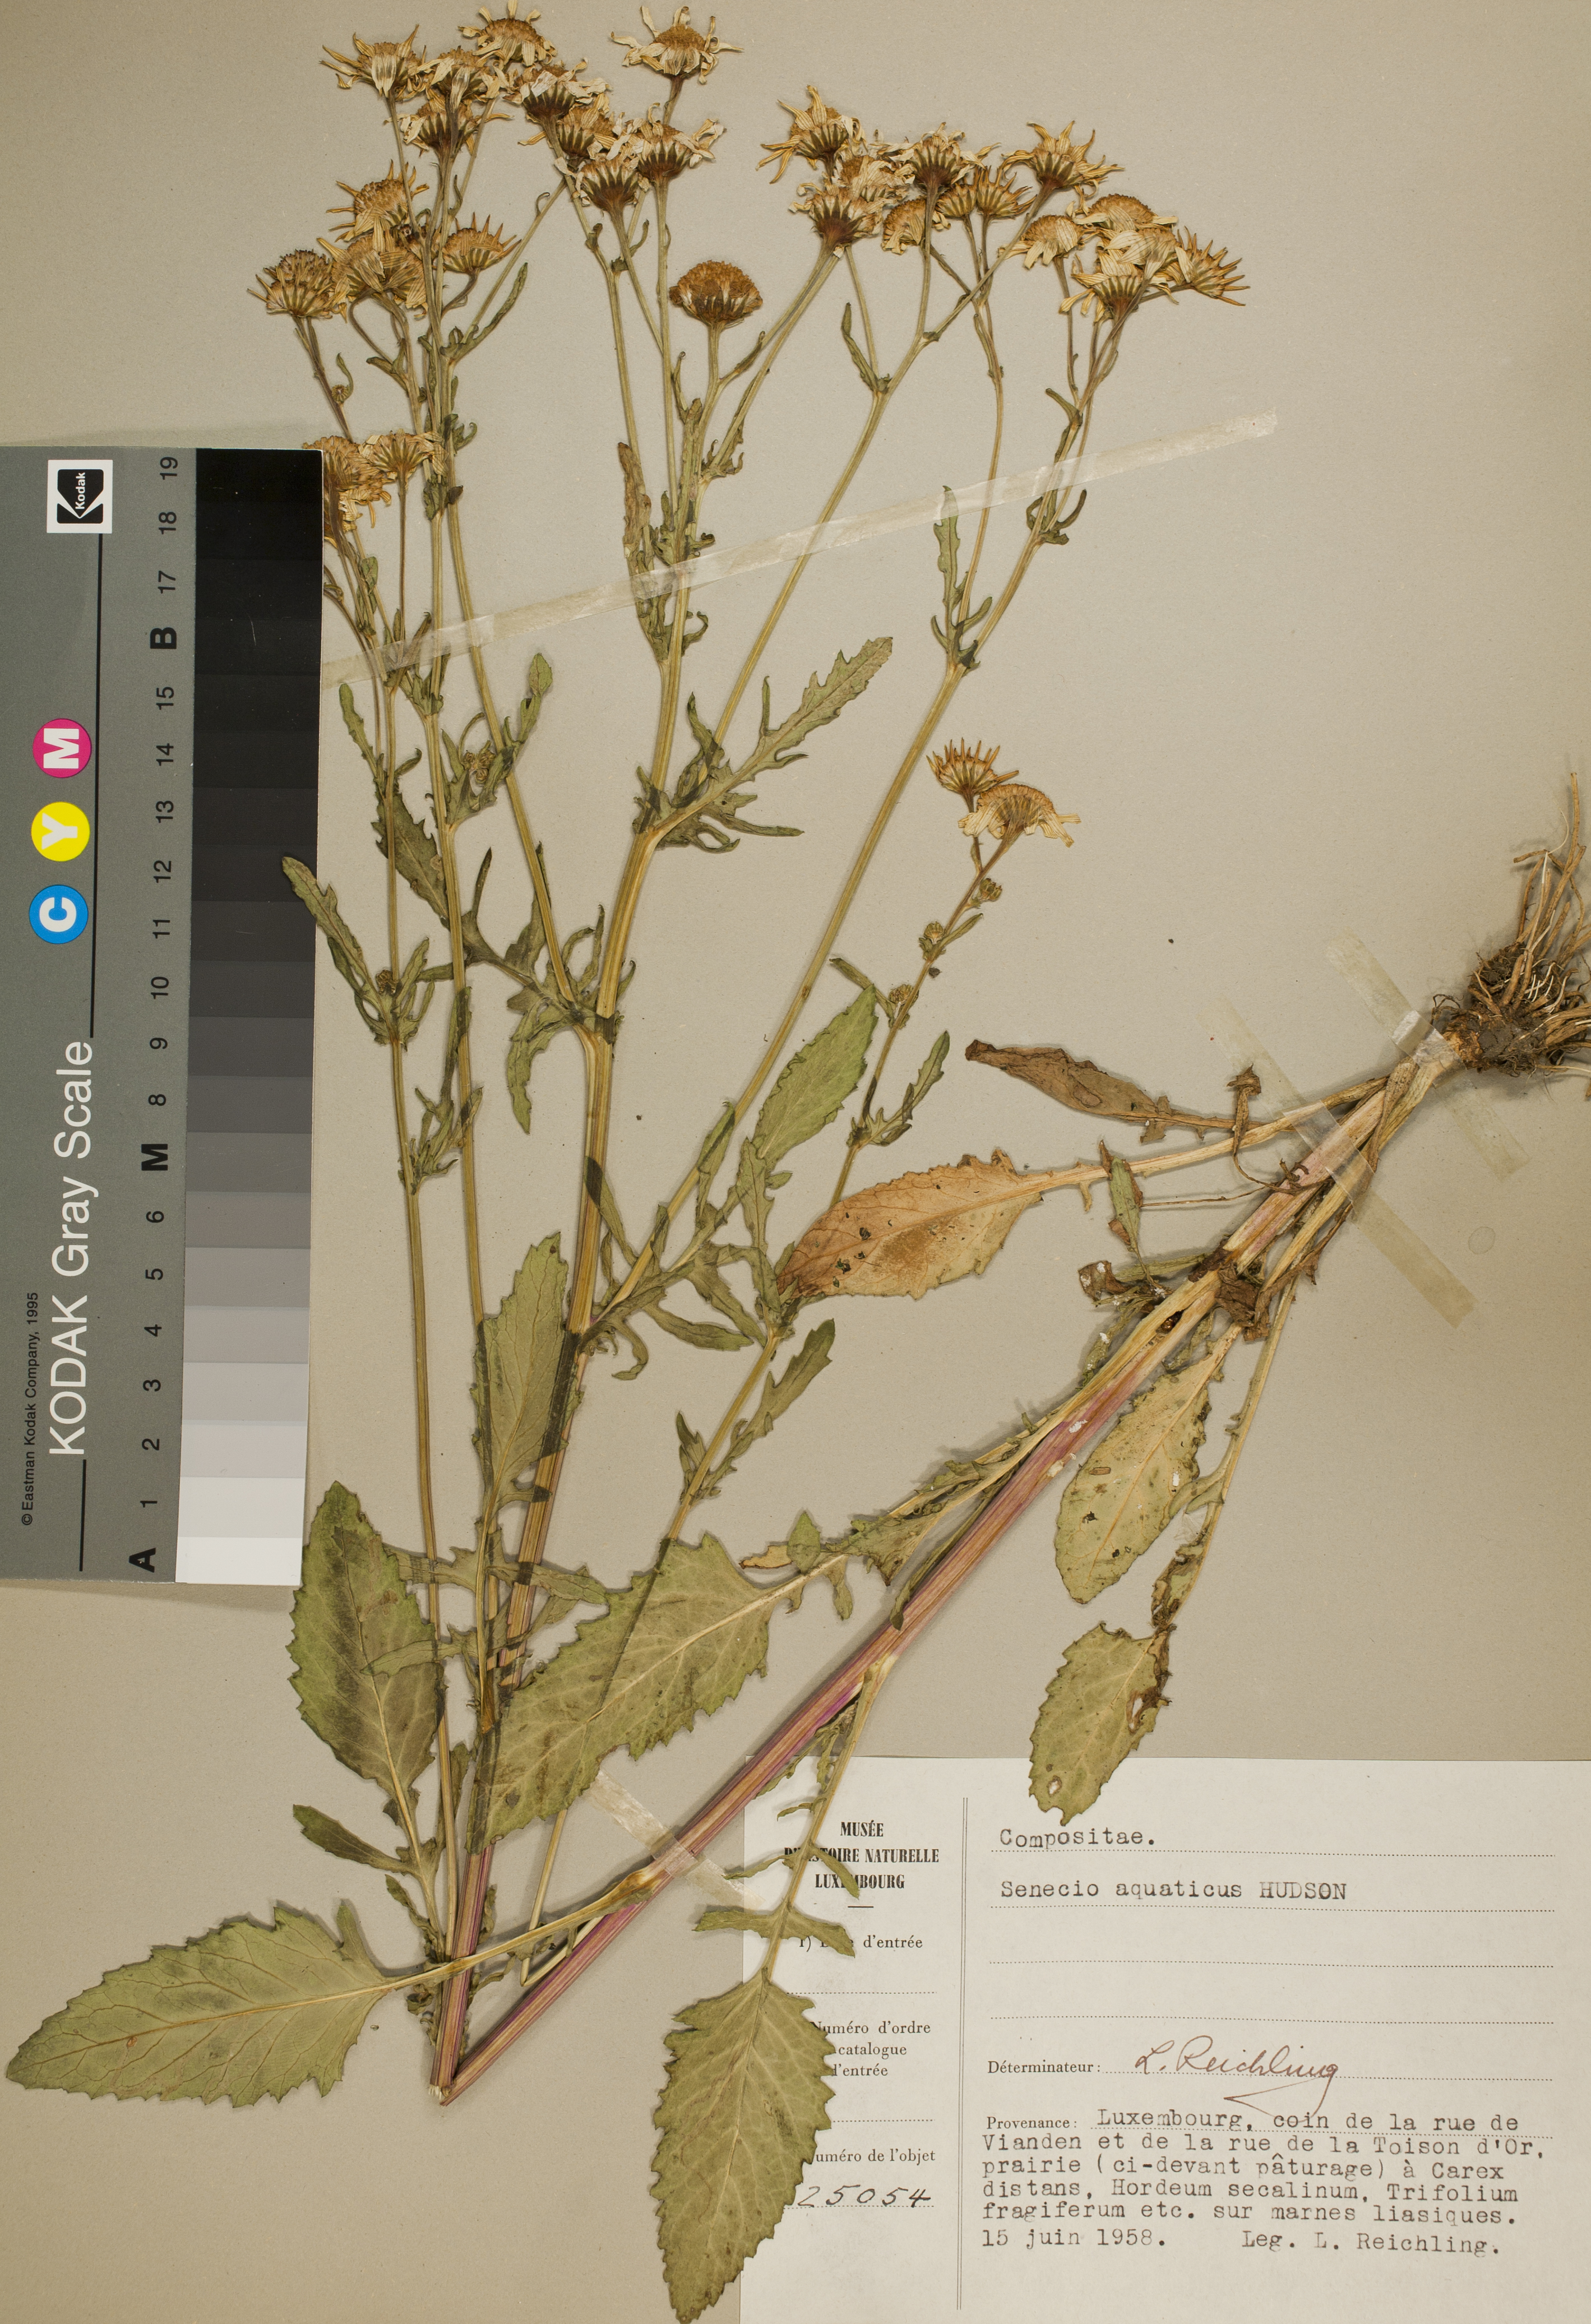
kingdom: Plantae
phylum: Tracheophyta
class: Magnoliopsida
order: Asterales
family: Asteraceae
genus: Jacobaea
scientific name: Jacobaea aquatica
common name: Water ragwort
